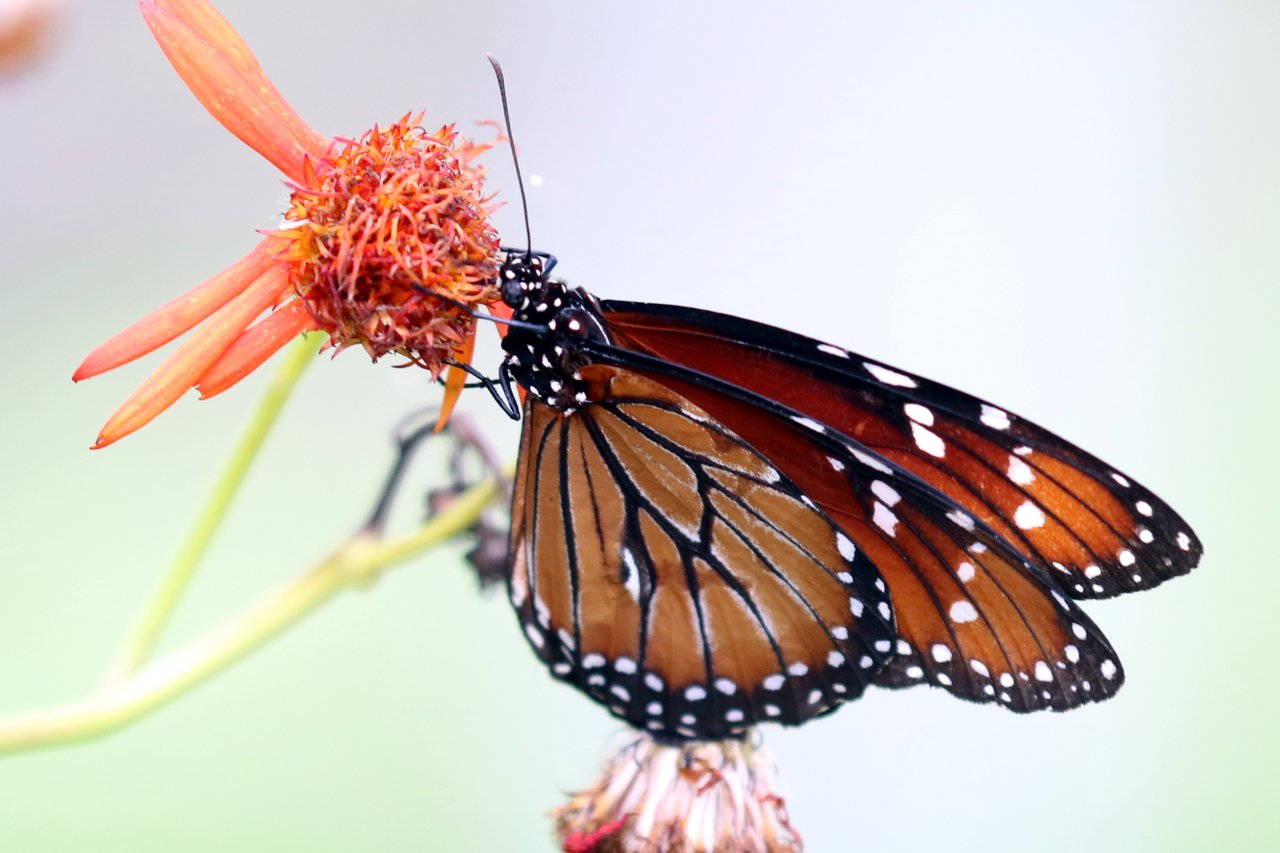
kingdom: Animalia
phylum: Arthropoda
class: Insecta
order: Lepidoptera
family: Nymphalidae
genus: Danaus
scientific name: Danaus eresimus
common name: Soldier
